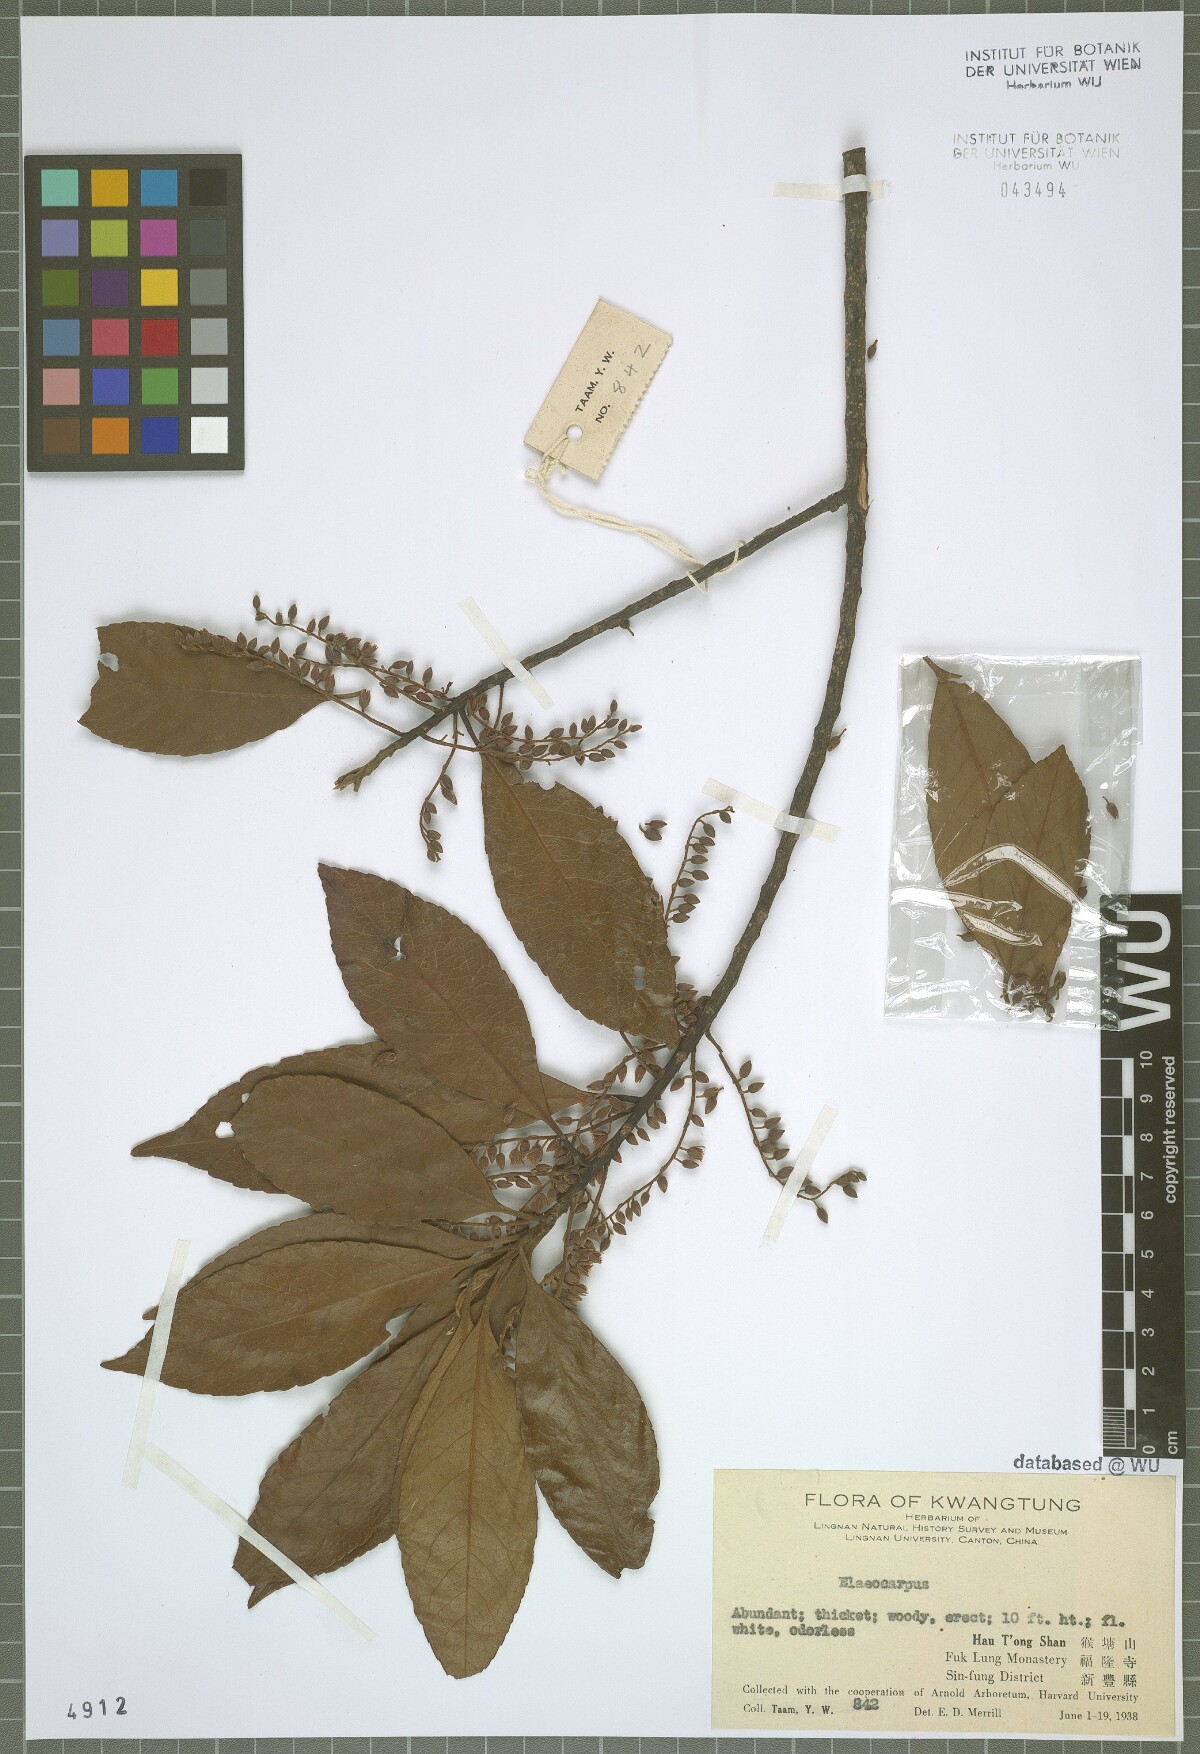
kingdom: Plantae
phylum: Tracheophyta
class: Magnoliopsida
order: Oxalidales
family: Elaeocarpaceae
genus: Elaeocarpus
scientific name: Elaeocarpus
